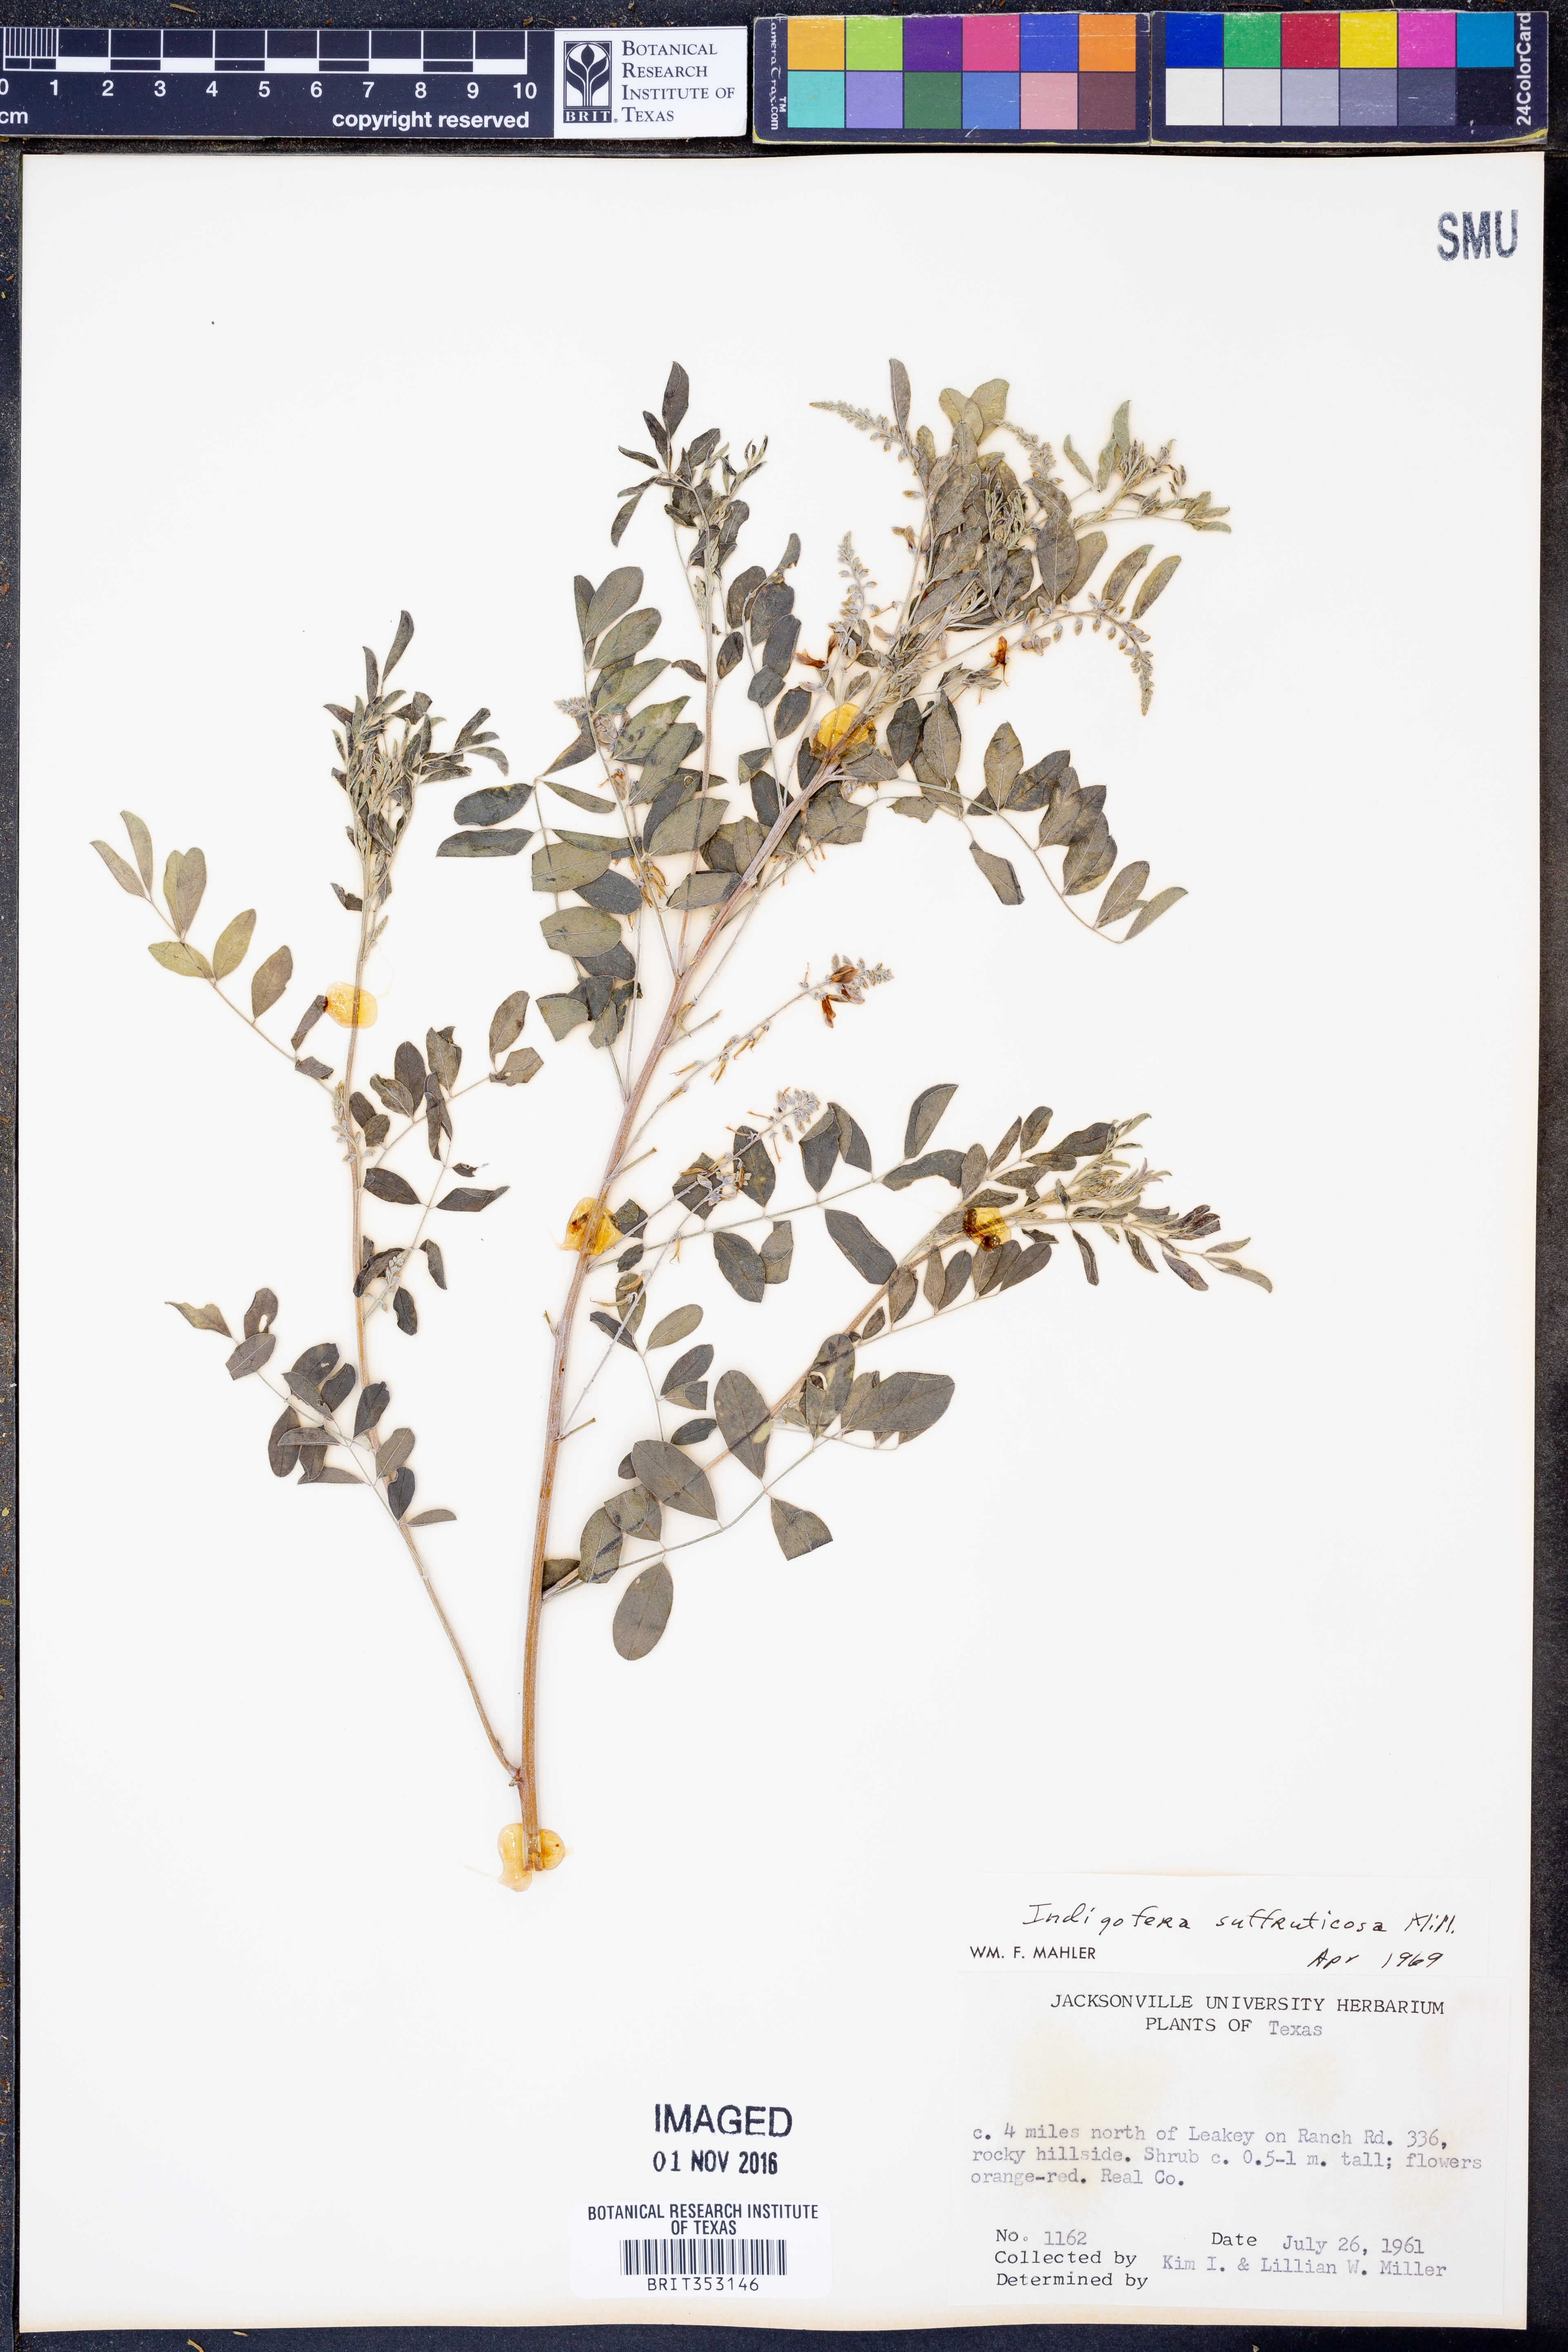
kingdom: Plantae
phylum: Tracheophyta
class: Magnoliopsida
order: Fabales
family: Fabaceae
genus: Indigofera
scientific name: Indigofera suffruticosa
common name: Anil de pasto
